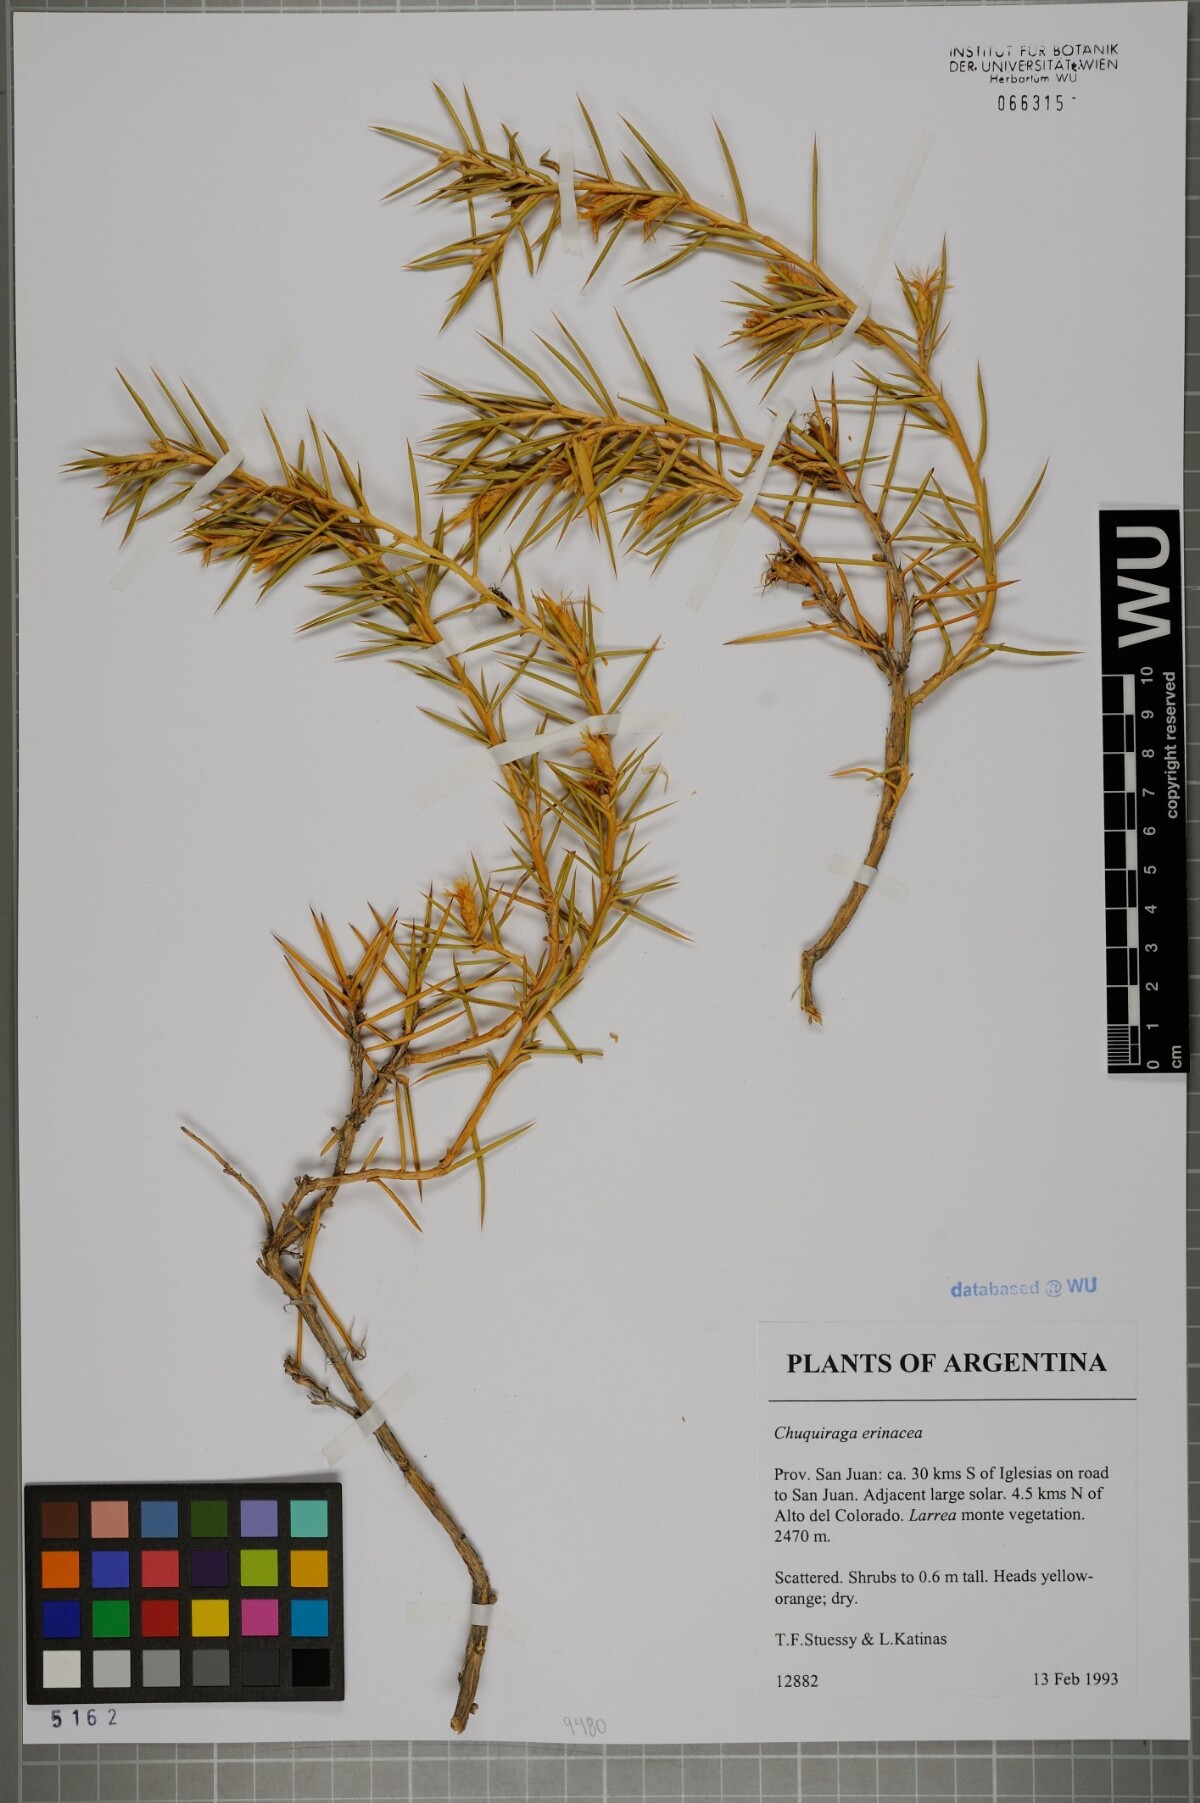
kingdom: Plantae
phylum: Tracheophyta
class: Magnoliopsida
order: Asterales
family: Asteraceae
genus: Chuquiraga
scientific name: Chuquiraga erinacea
